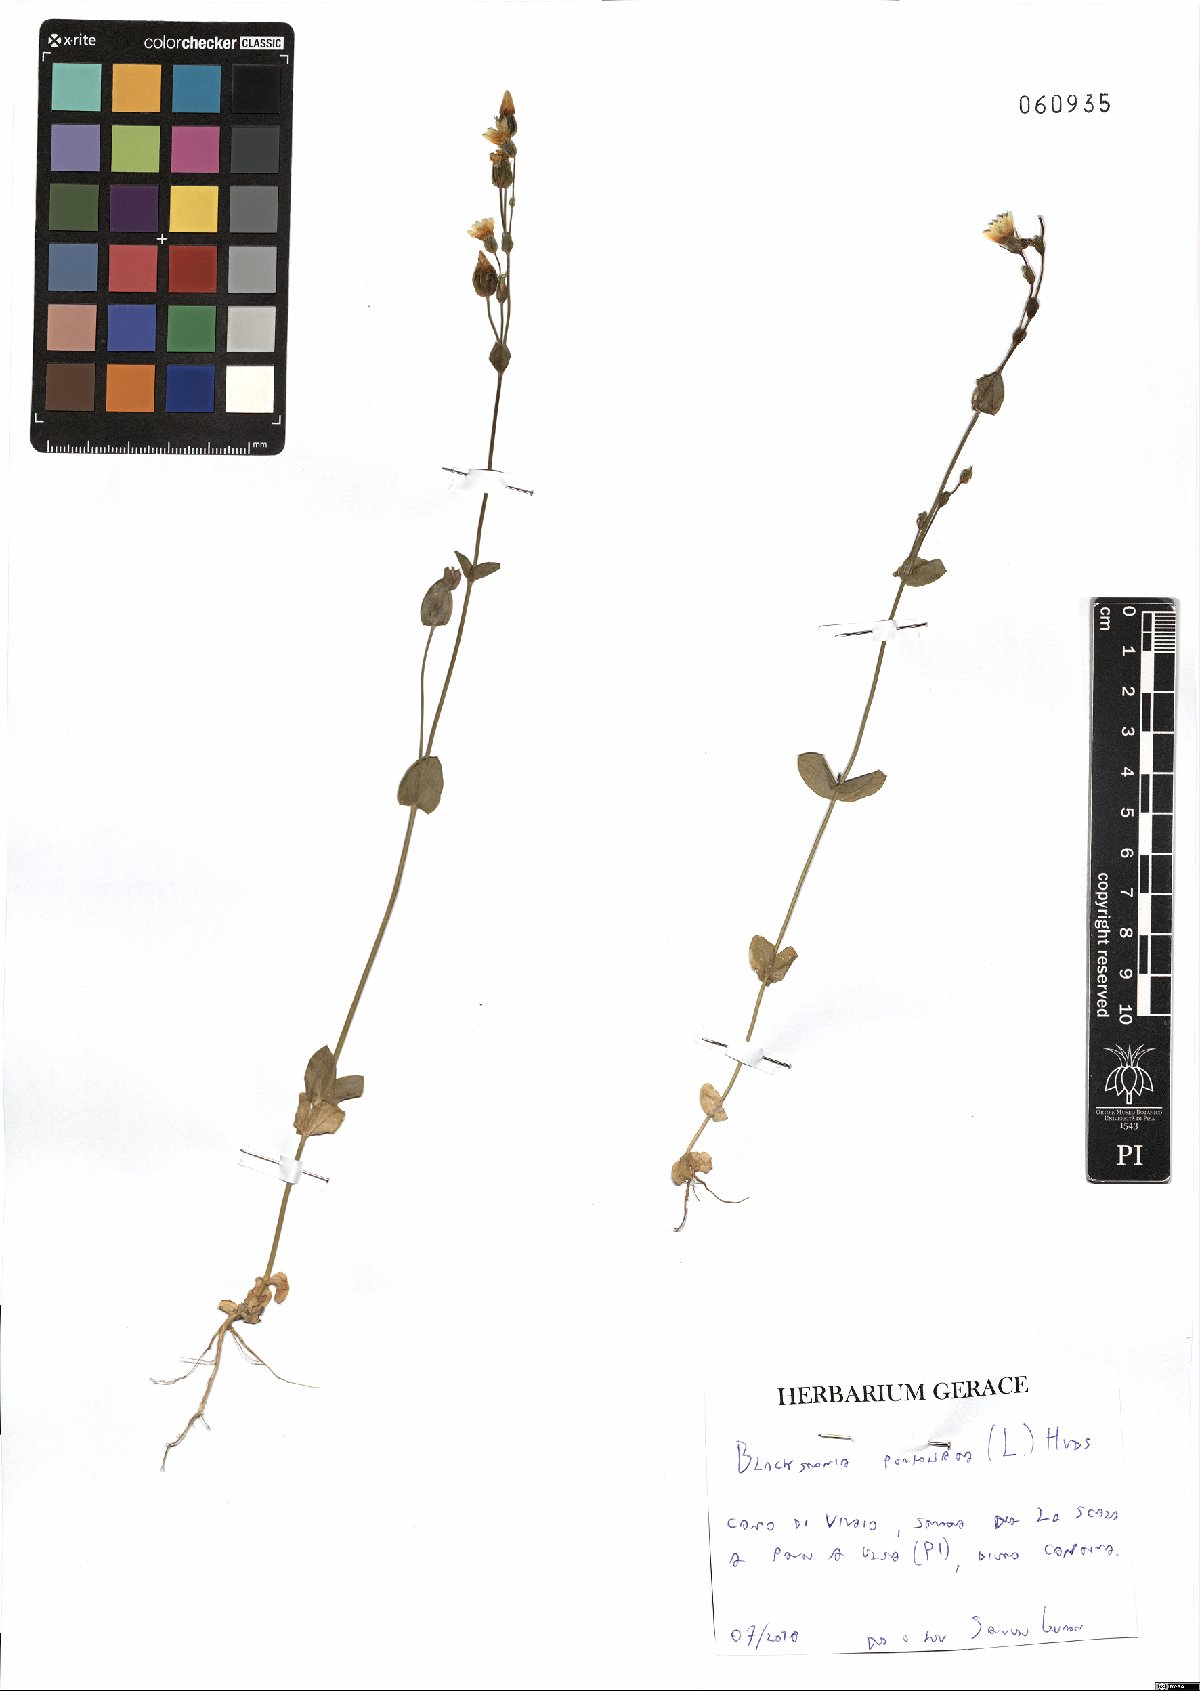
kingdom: Plantae
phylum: Tracheophyta
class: Magnoliopsida
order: Gentianales
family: Gentianaceae
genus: Blackstonia
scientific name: Blackstonia perfoliata
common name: Yellow-wort
